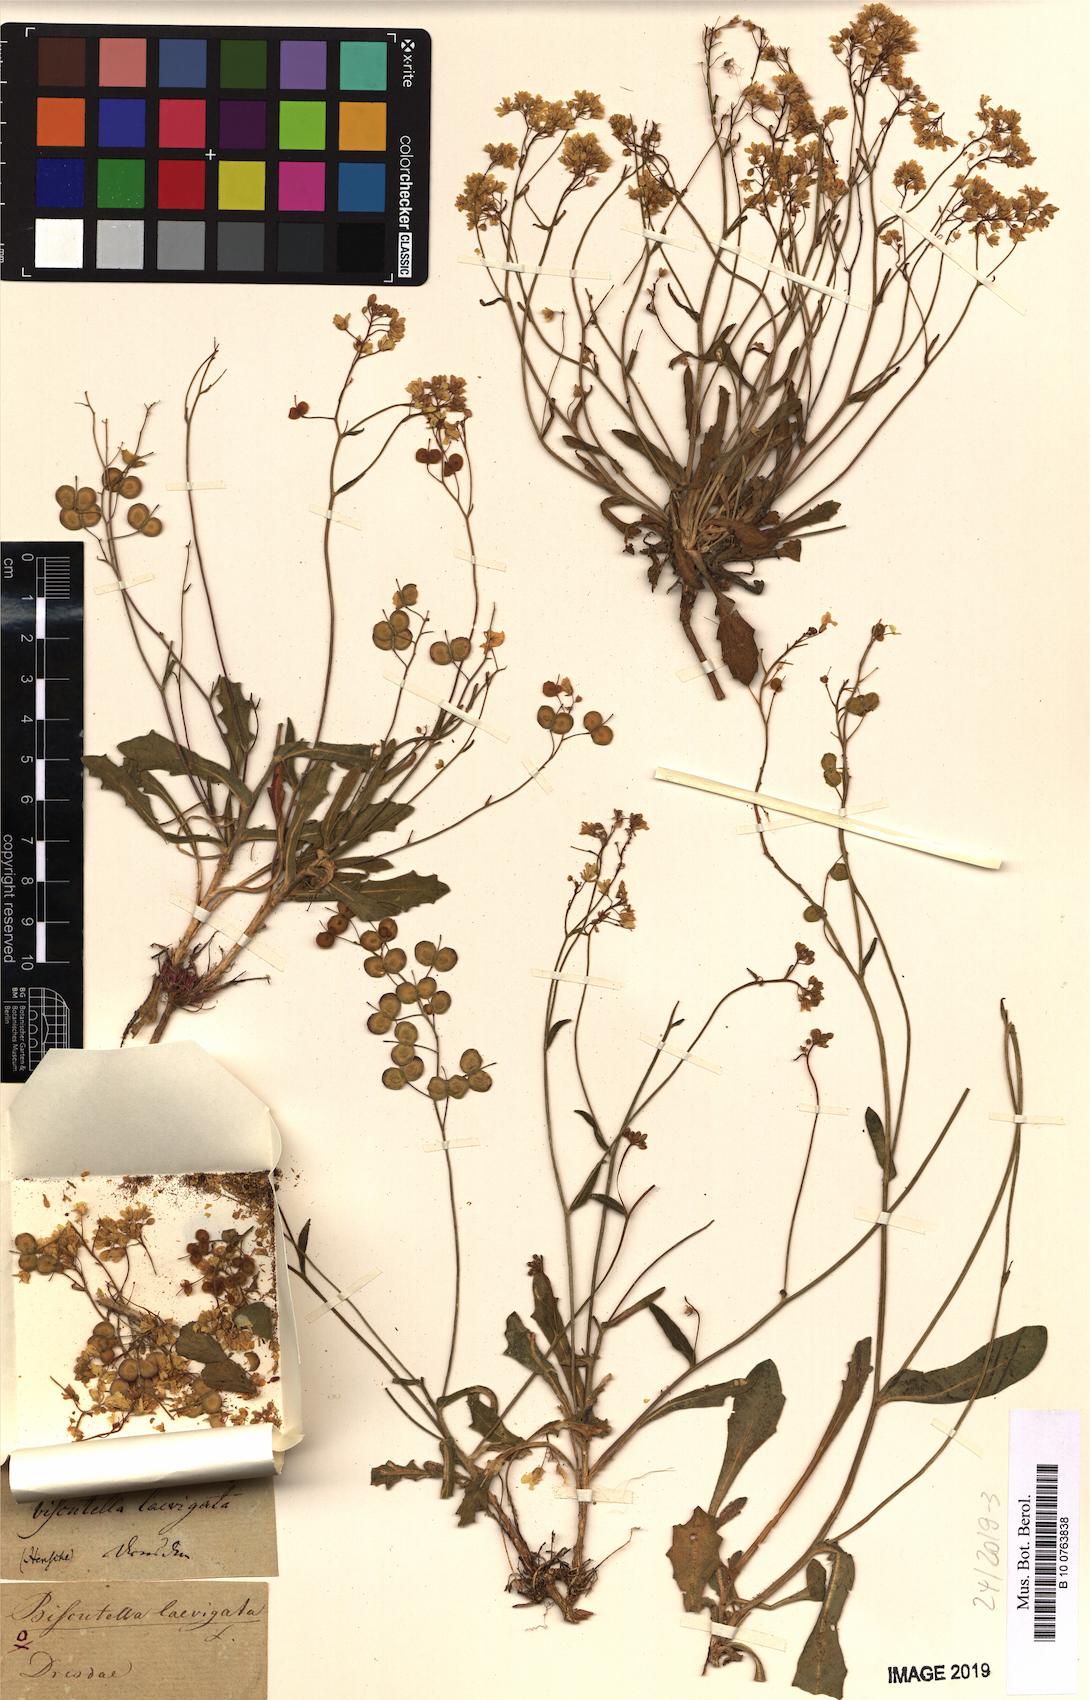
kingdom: Plantae
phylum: Tracheophyta
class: Magnoliopsida
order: Brassicales
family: Brassicaceae
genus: Biscutella
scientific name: Biscutella laevigata
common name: Buckler mustard
